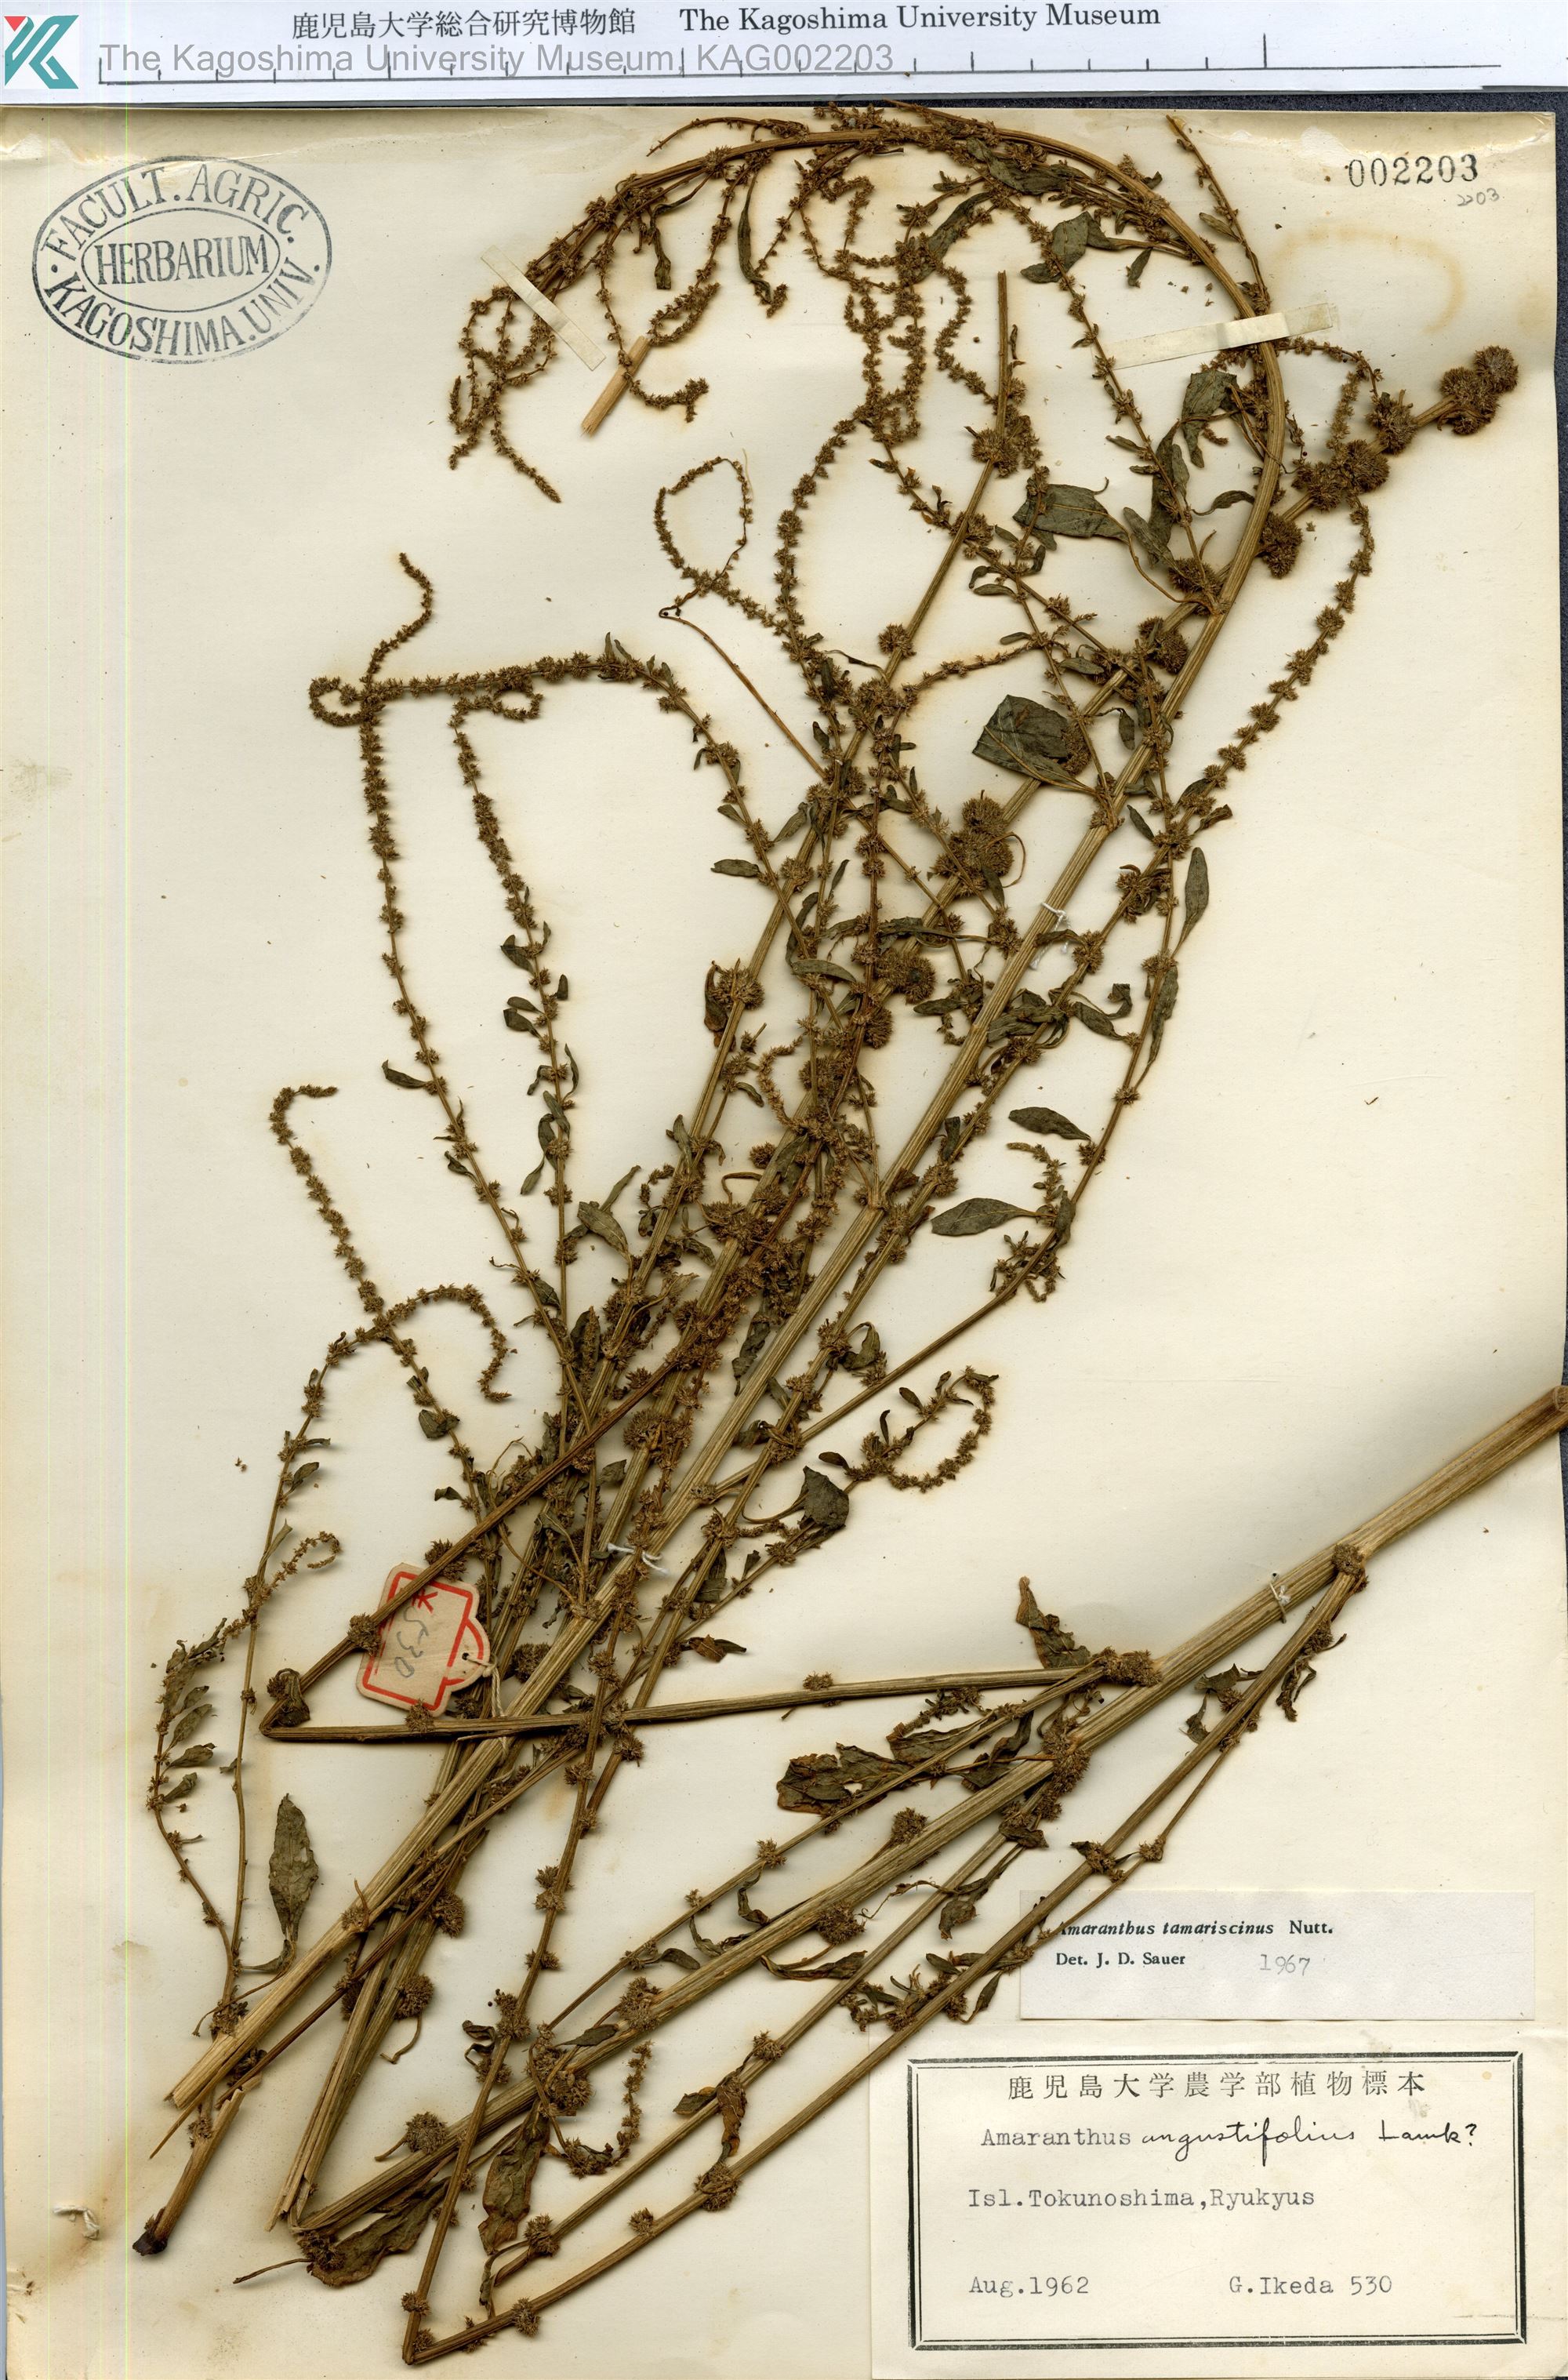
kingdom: Plantae
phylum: Tracheophyta
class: Magnoliopsida
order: Caryophyllales
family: Amaranthaceae
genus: Amaranthus
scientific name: Amaranthus tamariscinus
